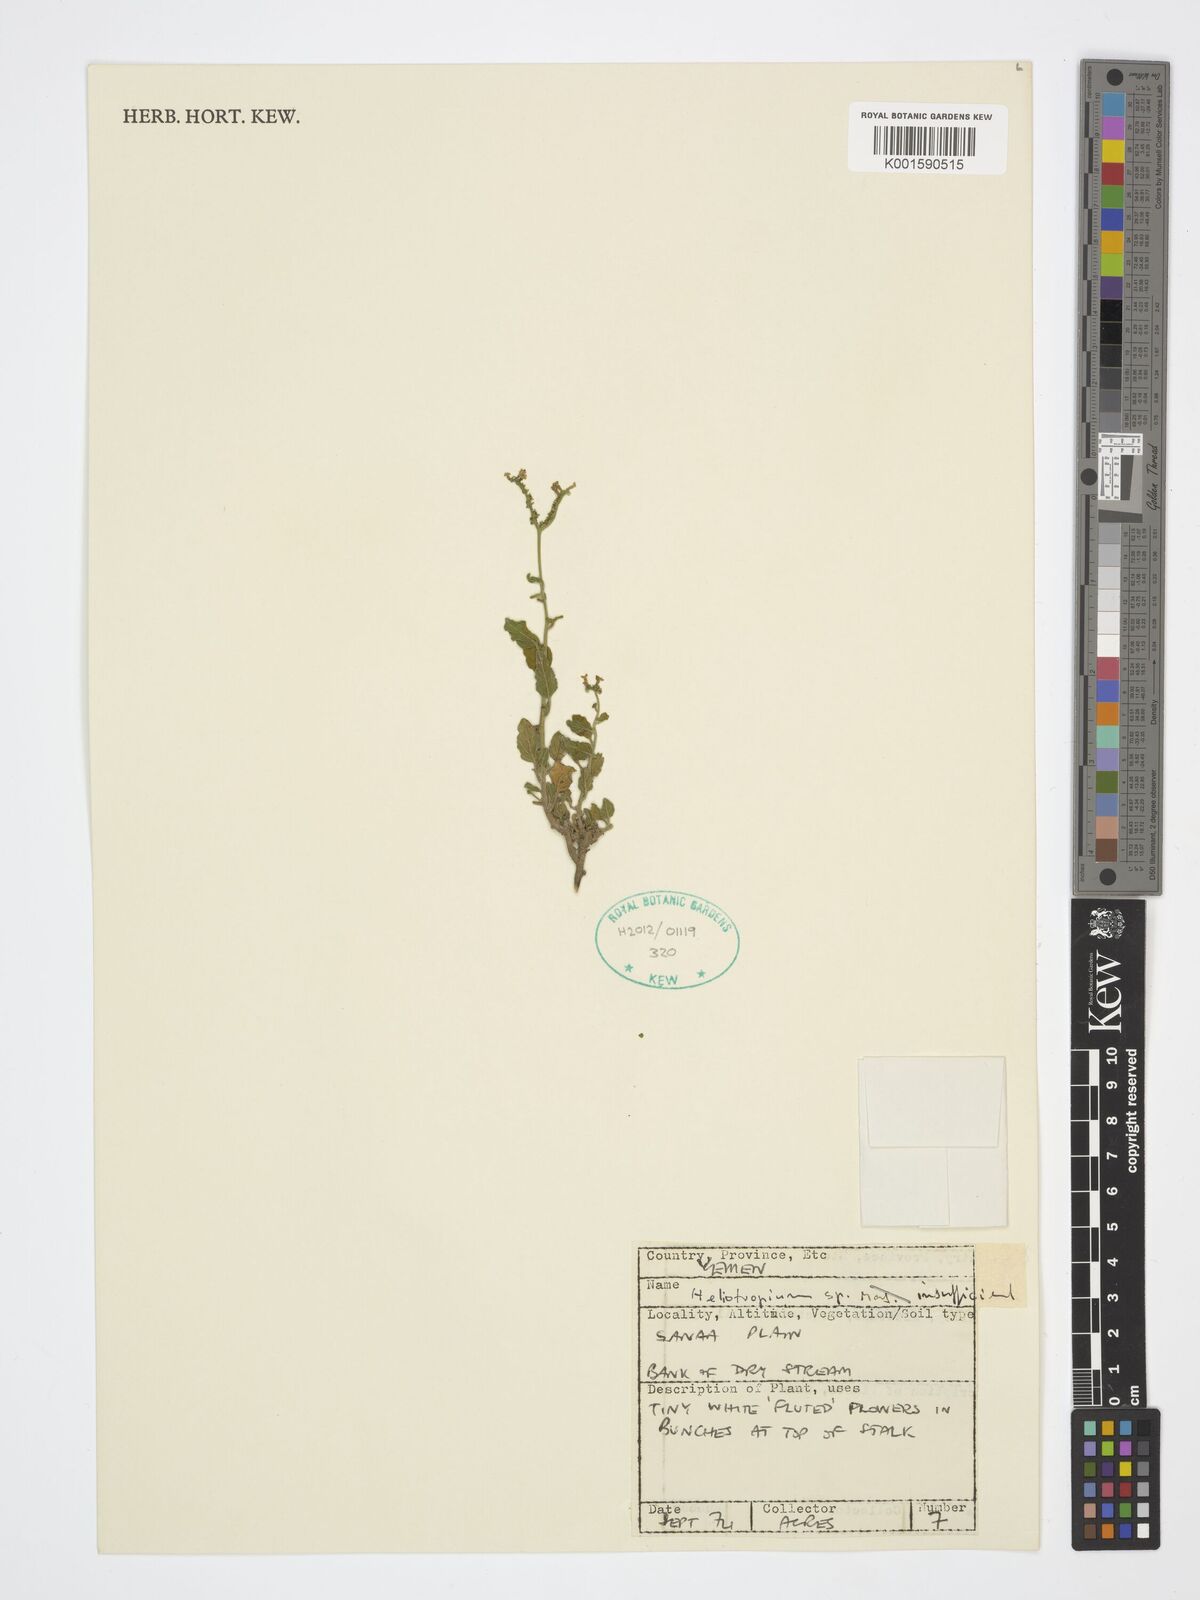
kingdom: Plantae
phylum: Tracheophyta
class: Magnoliopsida
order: Boraginales
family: Heliotropiaceae
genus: Heliotropium
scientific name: Heliotropium
